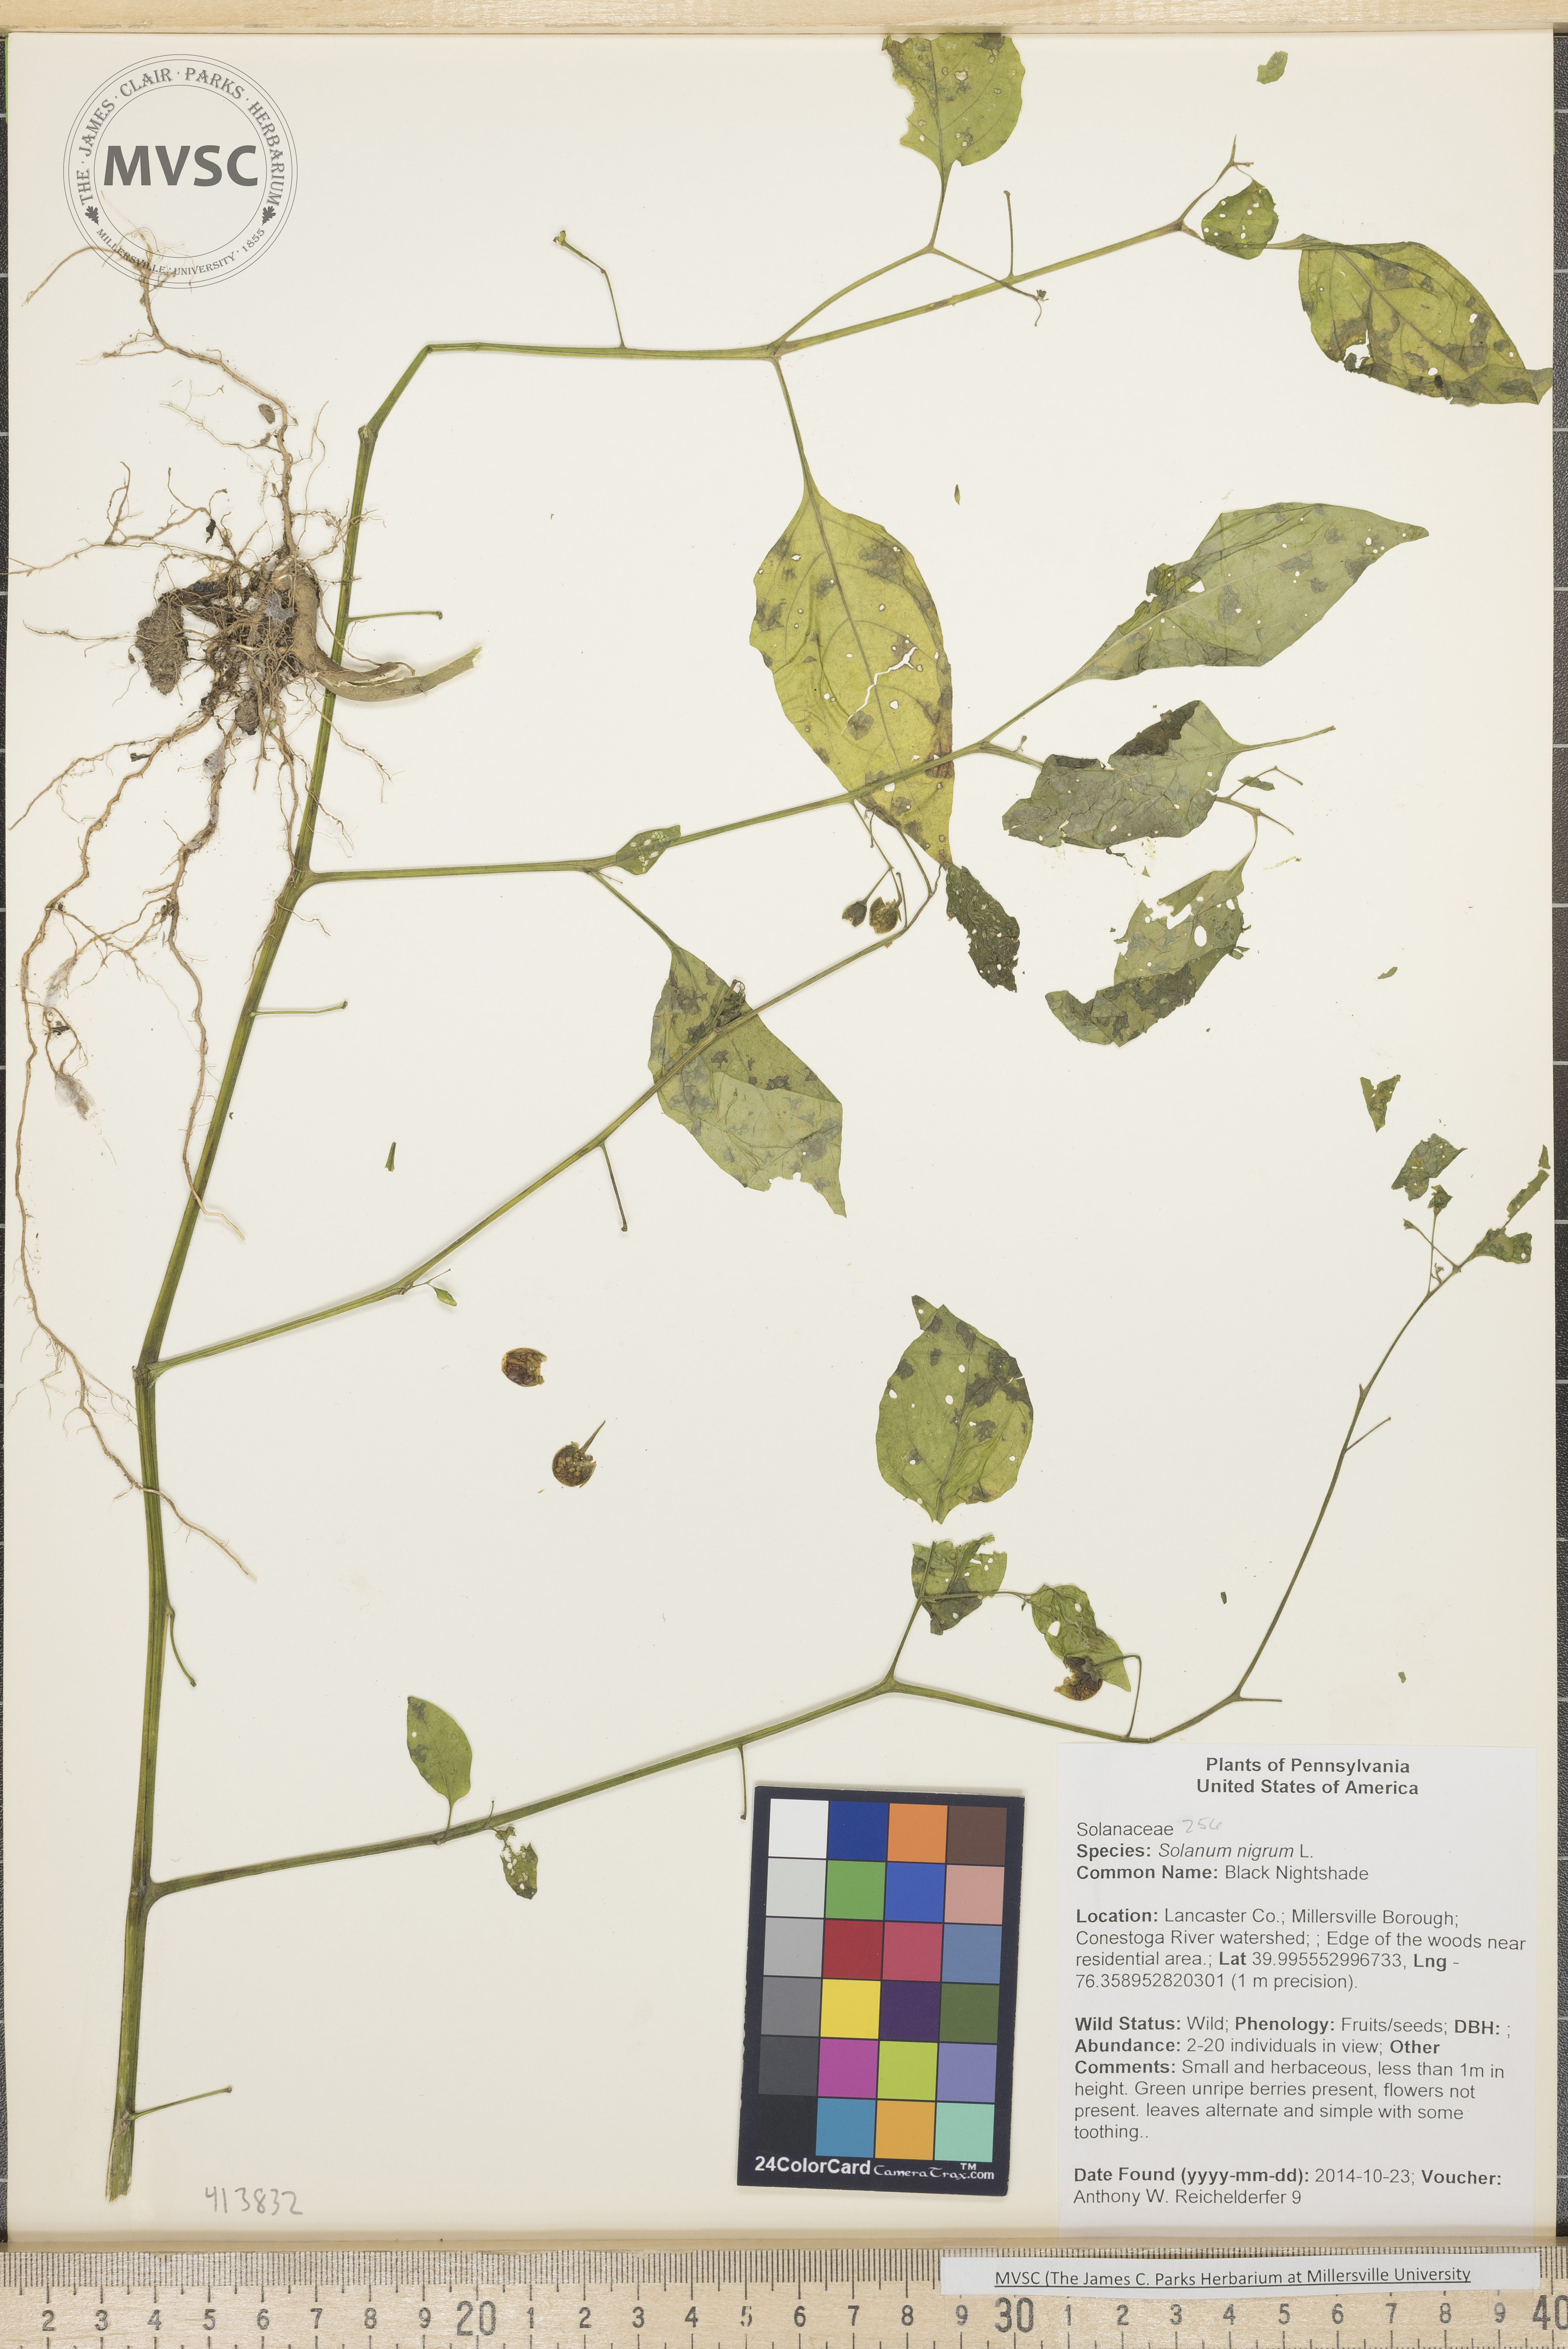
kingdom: Plantae
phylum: Tracheophyta
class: Magnoliopsida
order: Solanales
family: Solanaceae
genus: Solanum
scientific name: Solanum americanum
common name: Black Nightshade
